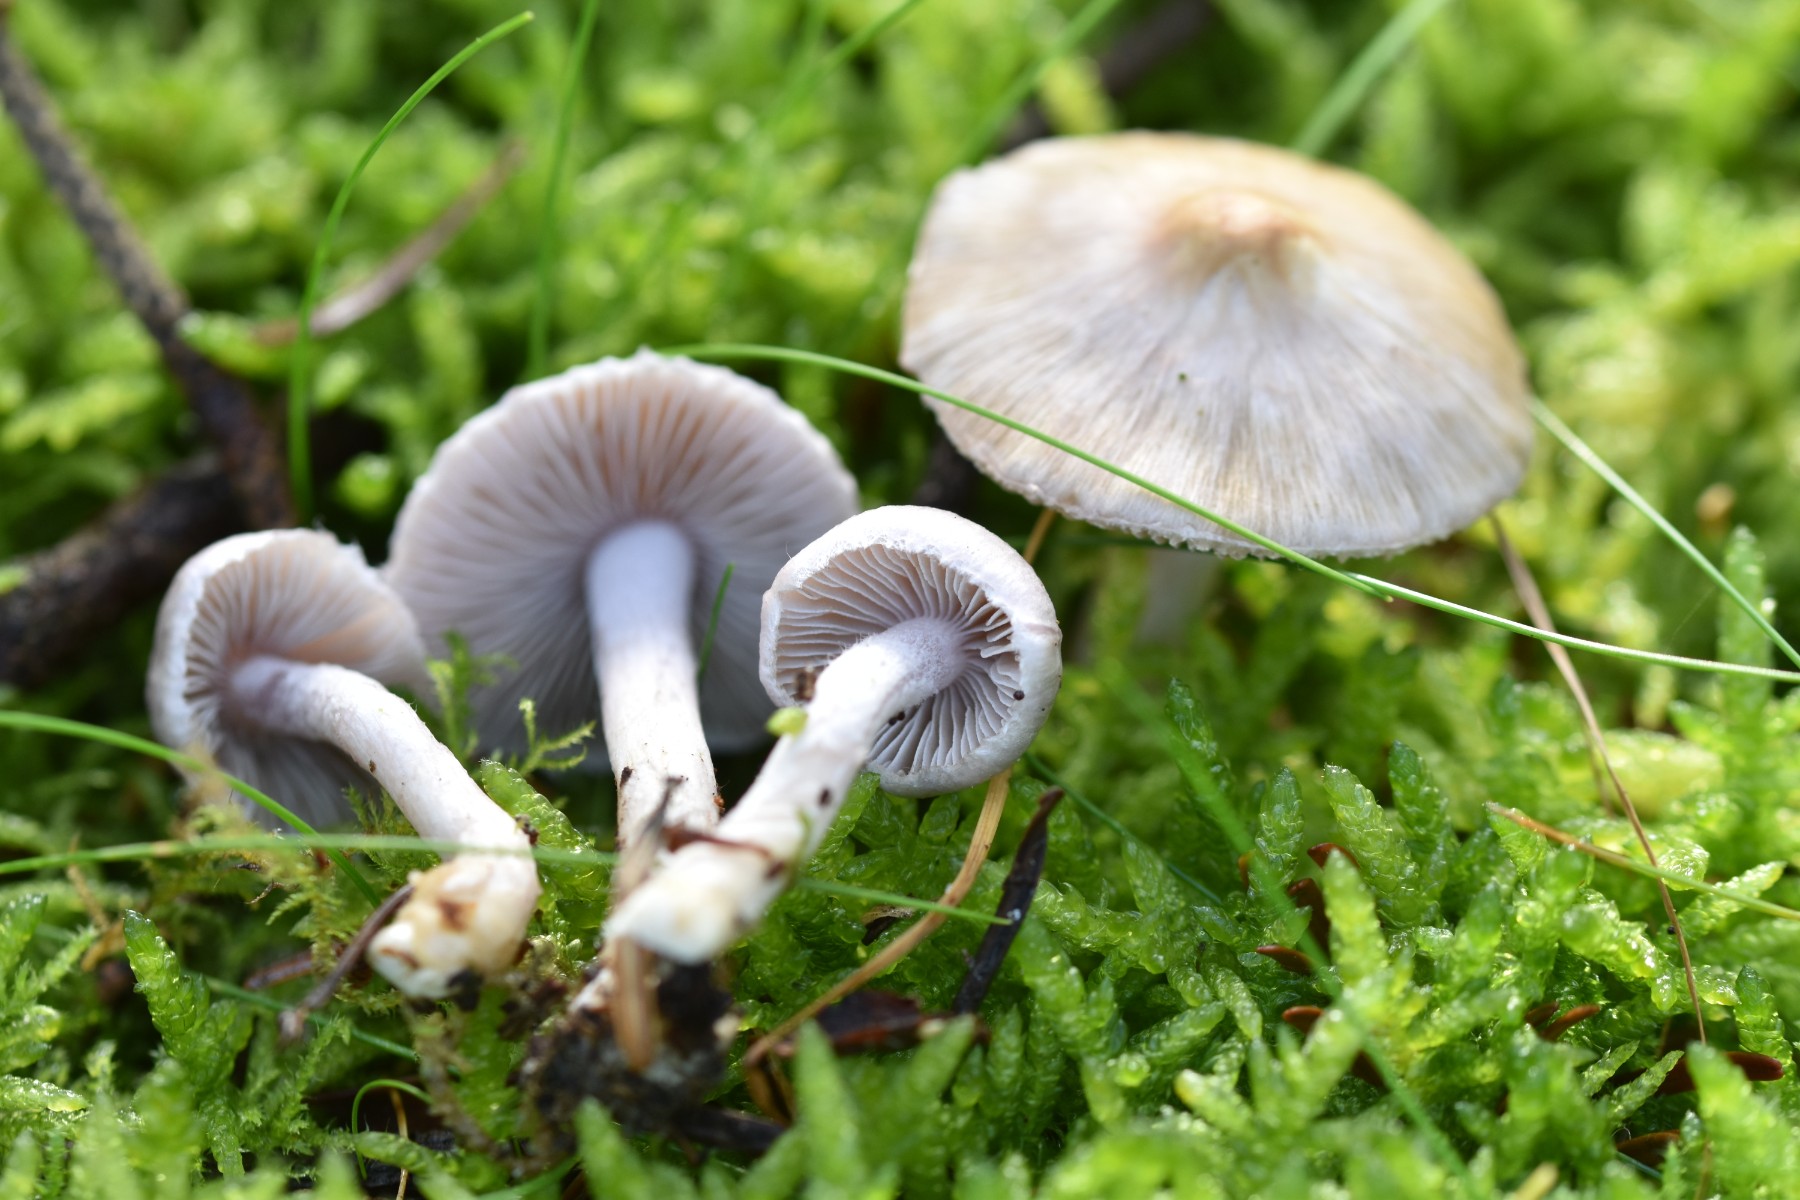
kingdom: Fungi
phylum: Basidiomycota
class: Agaricomycetes
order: Agaricales
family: Inocybaceae
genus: Inocybe
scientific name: Inocybe geophylla
